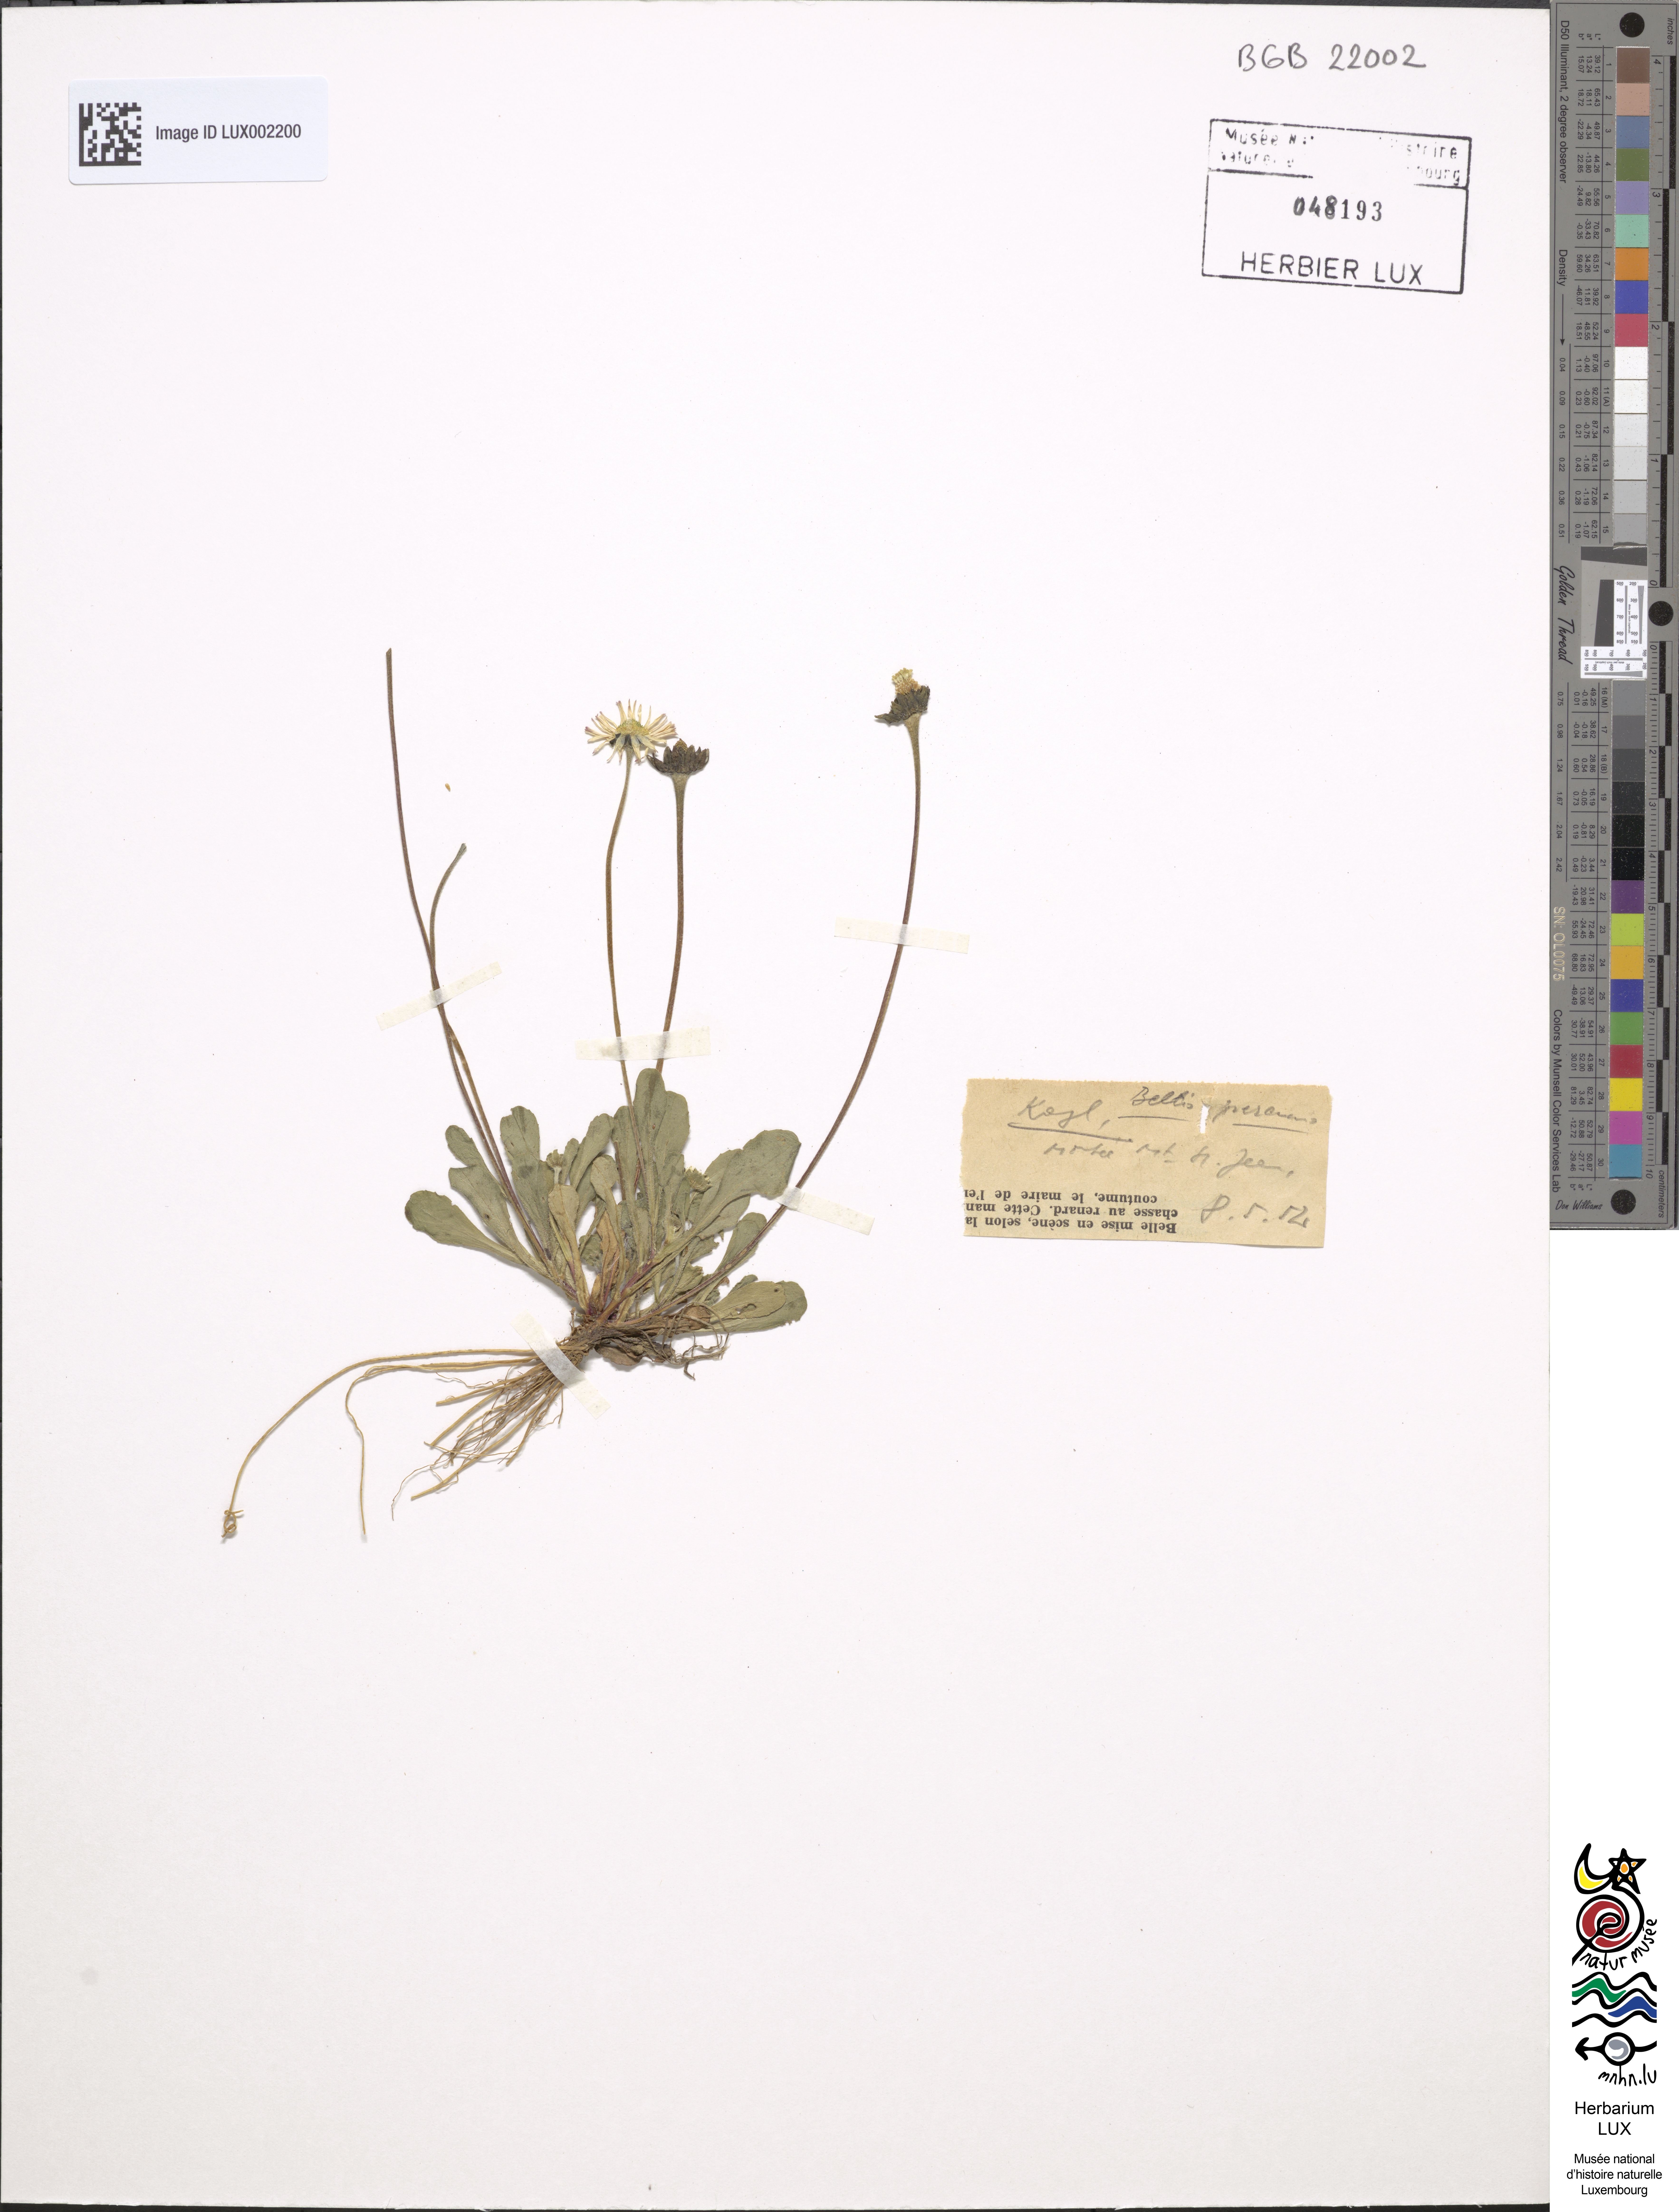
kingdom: Plantae
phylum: Tracheophyta
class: Magnoliopsida
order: Asterales
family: Asteraceae
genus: Bellis
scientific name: Bellis perennis
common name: Lawndaisy
